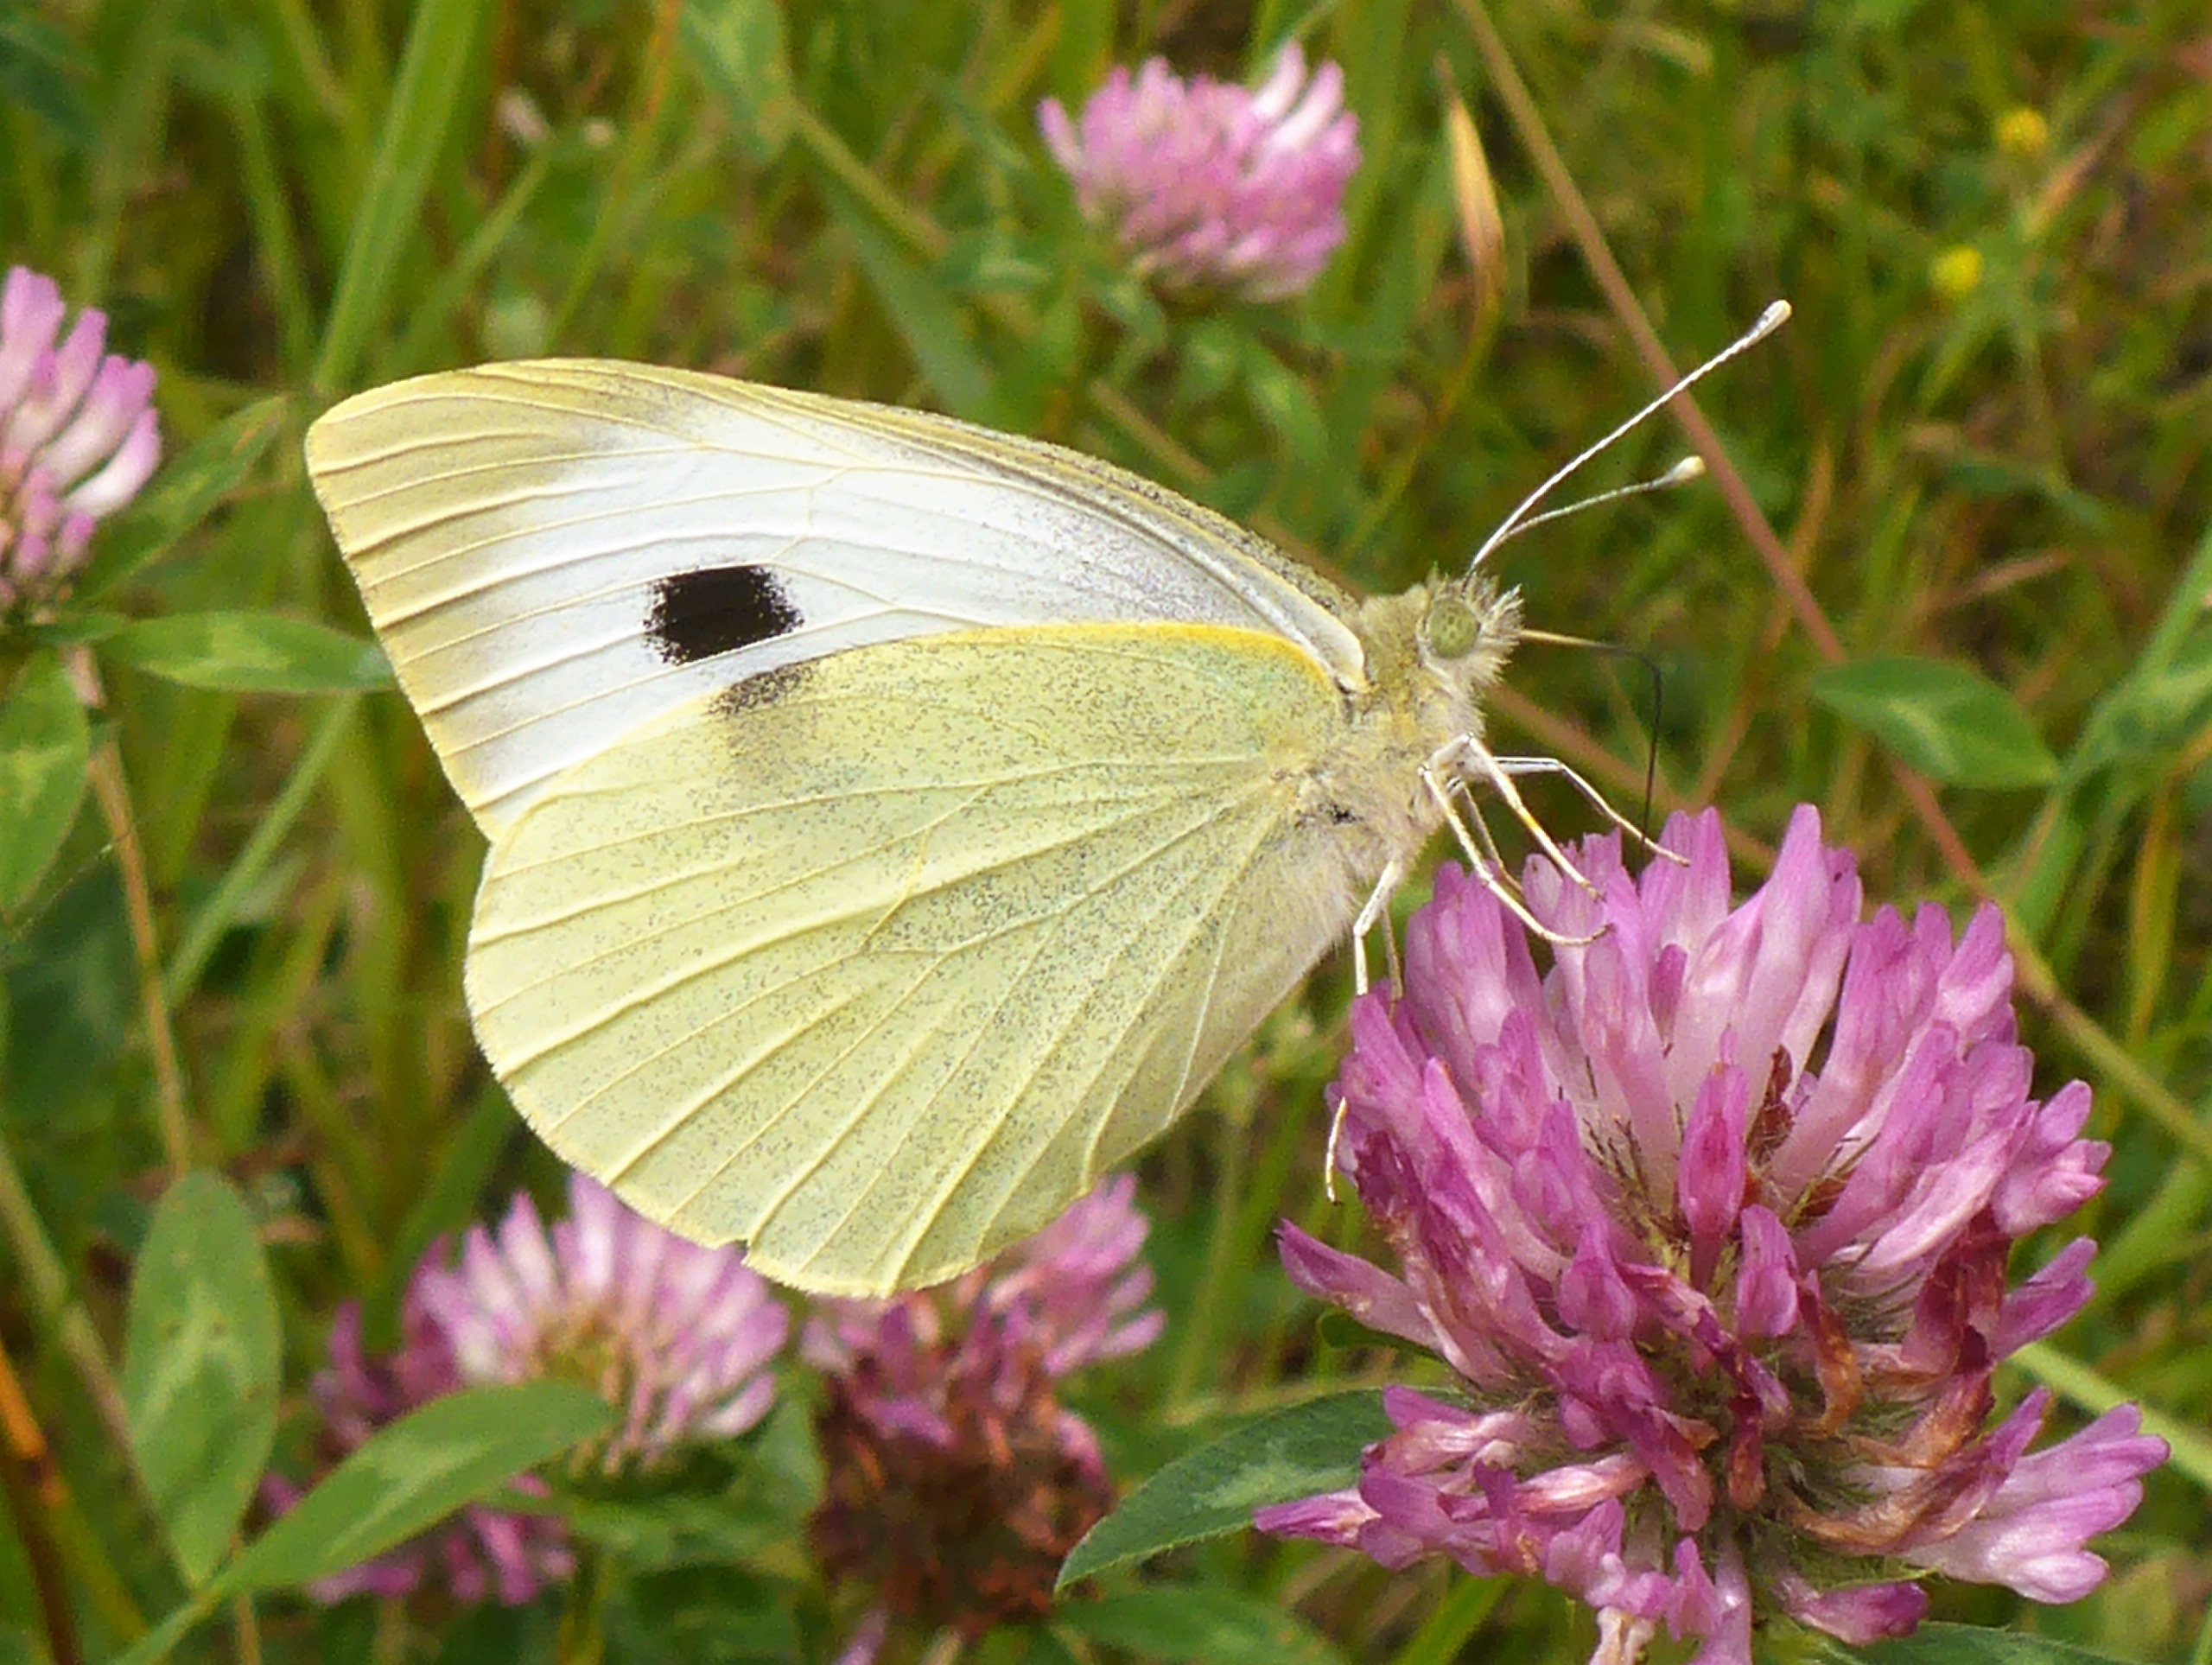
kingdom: Animalia
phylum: Arthropoda
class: Insecta
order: Lepidoptera
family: Pieridae
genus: Pieris
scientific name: Pieris brassicae
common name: Stor kålsommerfugl
